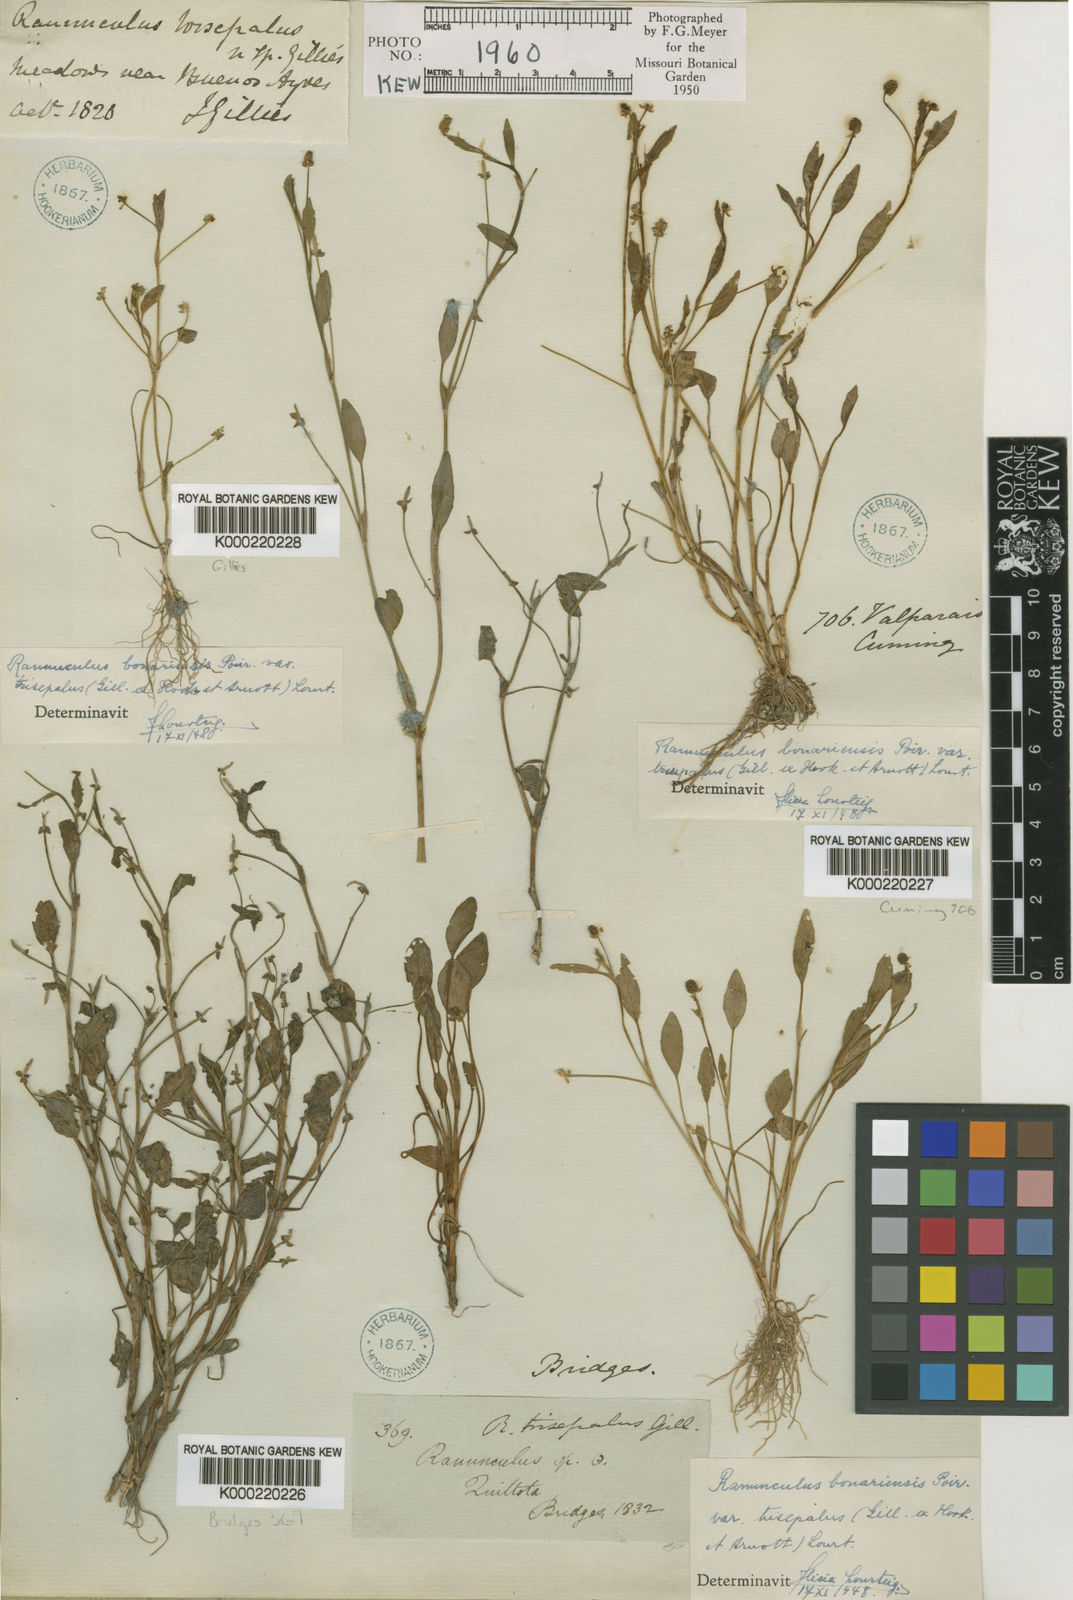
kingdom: Plantae
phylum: Tracheophyta
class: Magnoliopsida
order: Ranunculales
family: Ranunculaceae
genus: Ranunculus
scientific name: Ranunculus bonariensis
